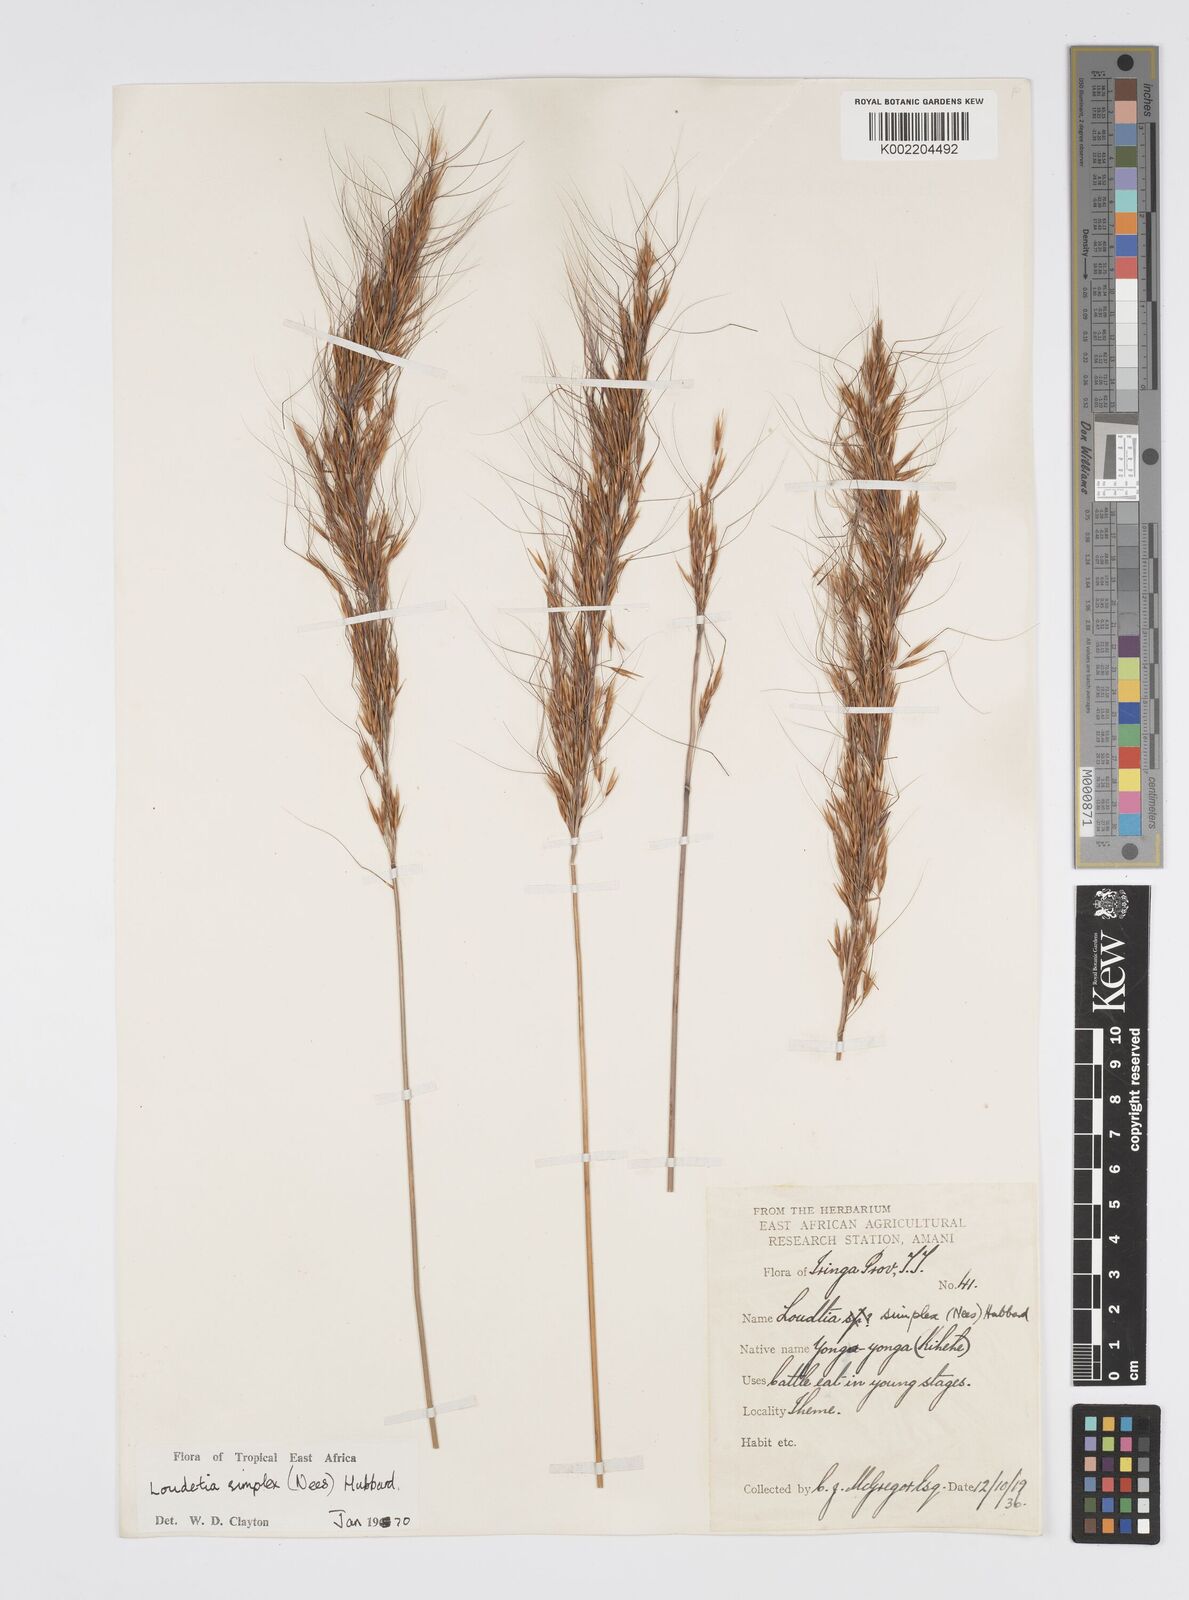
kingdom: Plantae
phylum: Tracheophyta
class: Liliopsida
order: Poales
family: Poaceae
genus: Loudetia
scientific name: Loudetia simplex
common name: Common russet grass
